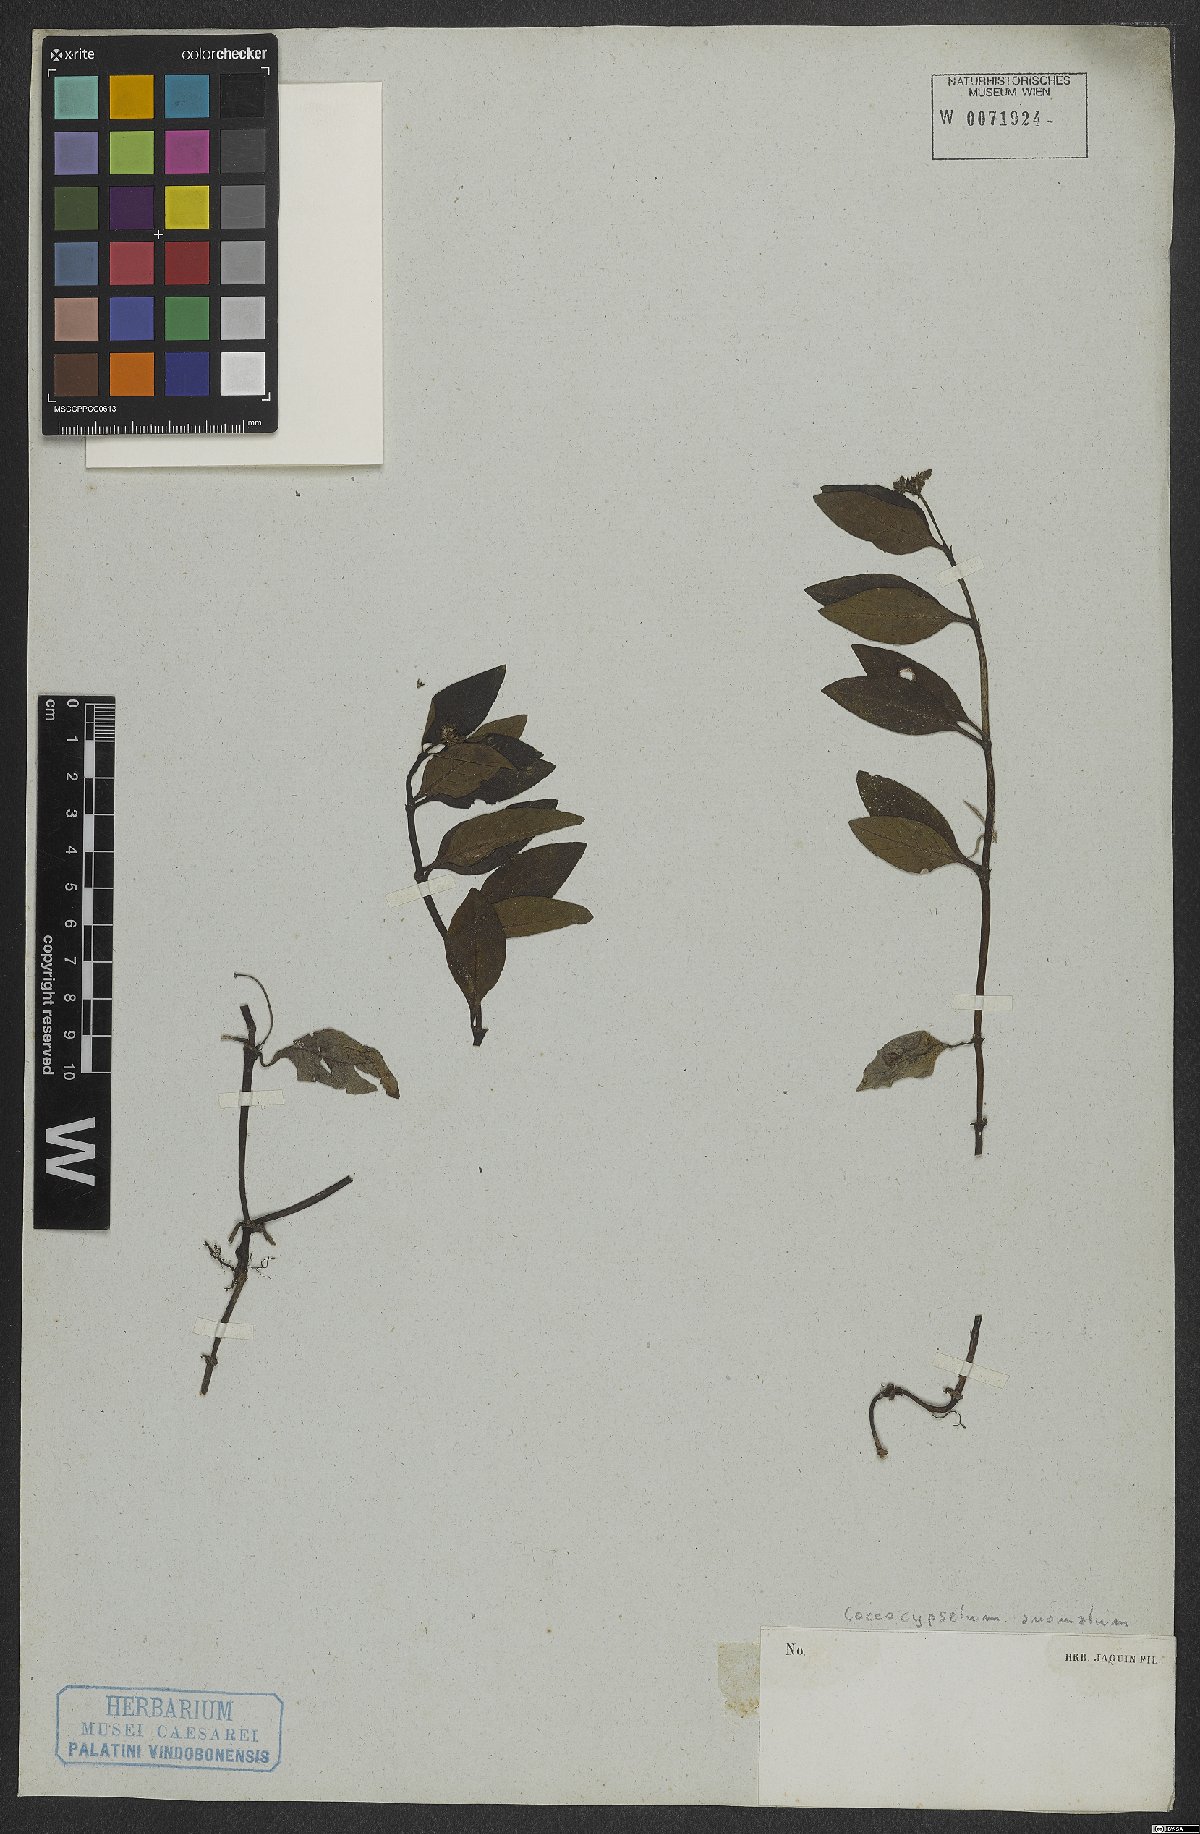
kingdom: Plantae
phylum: Tracheophyta
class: Magnoliopsida
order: Gentianales
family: Rubiaceae
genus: Coccocypselum
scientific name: Coccocypselum anomalum
